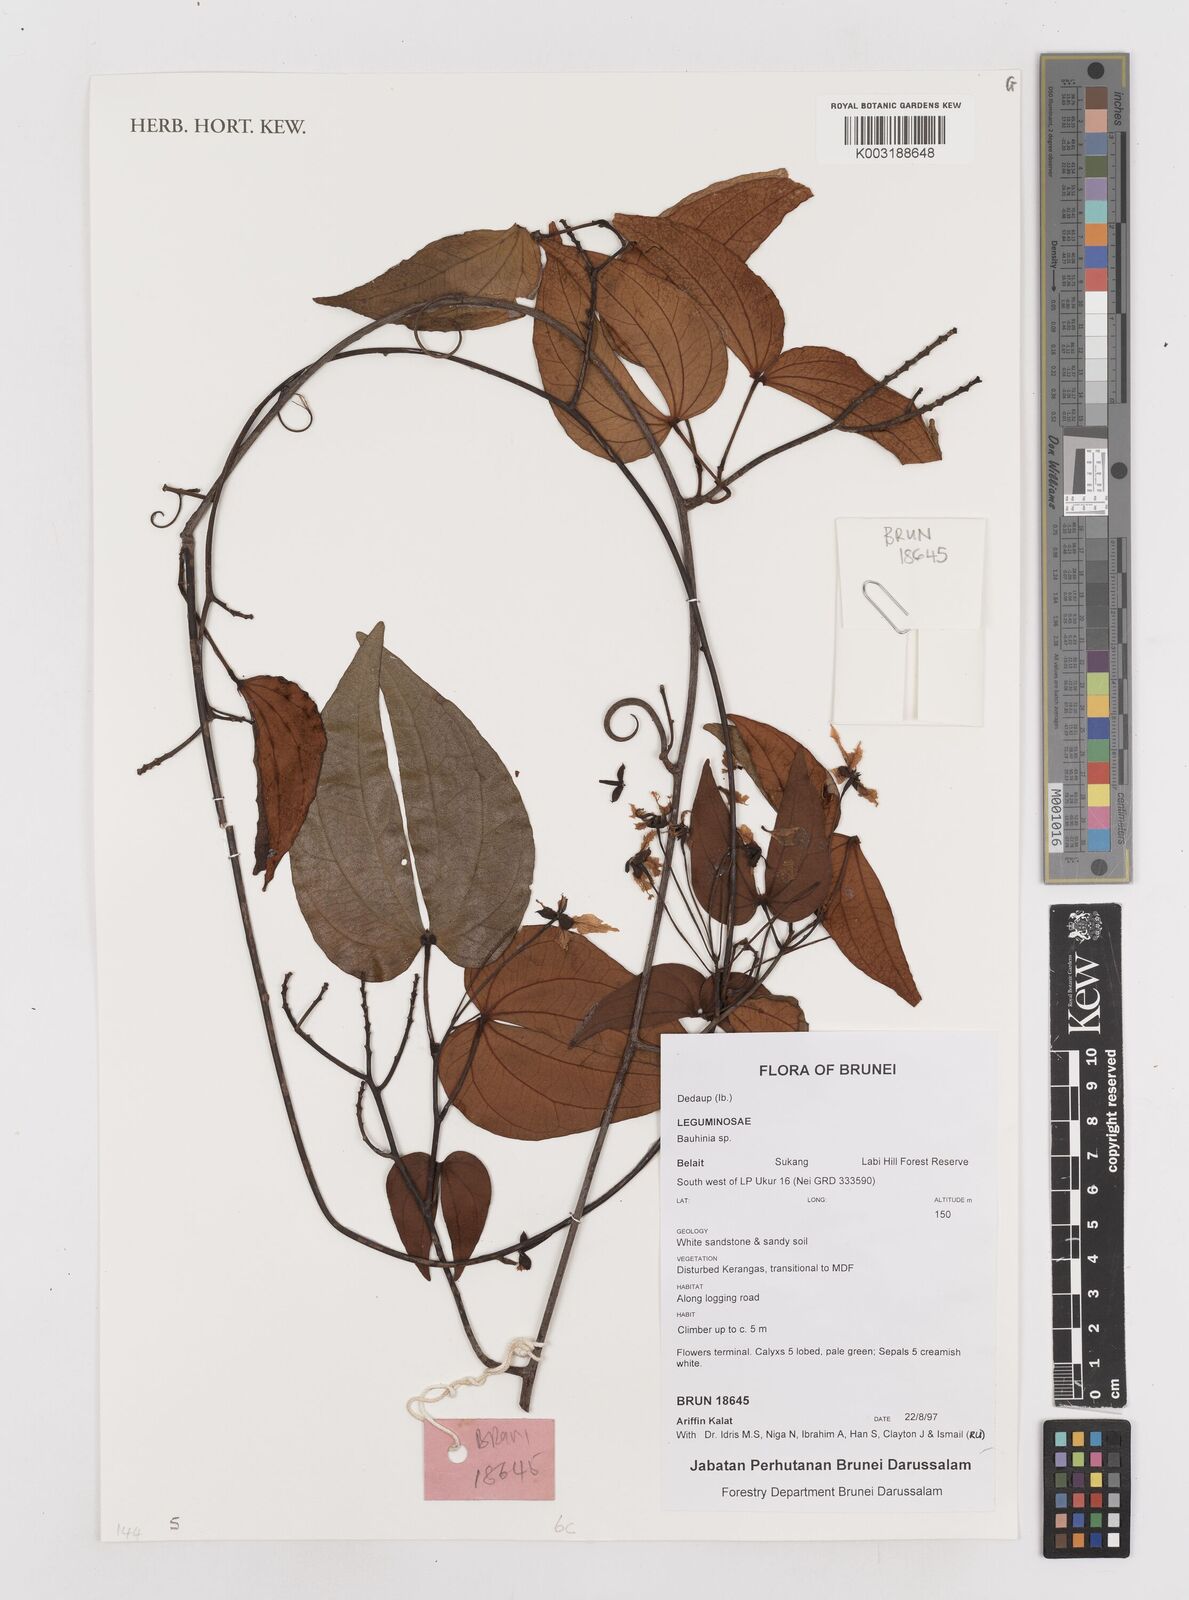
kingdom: Plantae
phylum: Tracheophyta
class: Magnoliopsida
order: Fabales
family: Fabaceae
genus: Bauhinia
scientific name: Bauhinia
